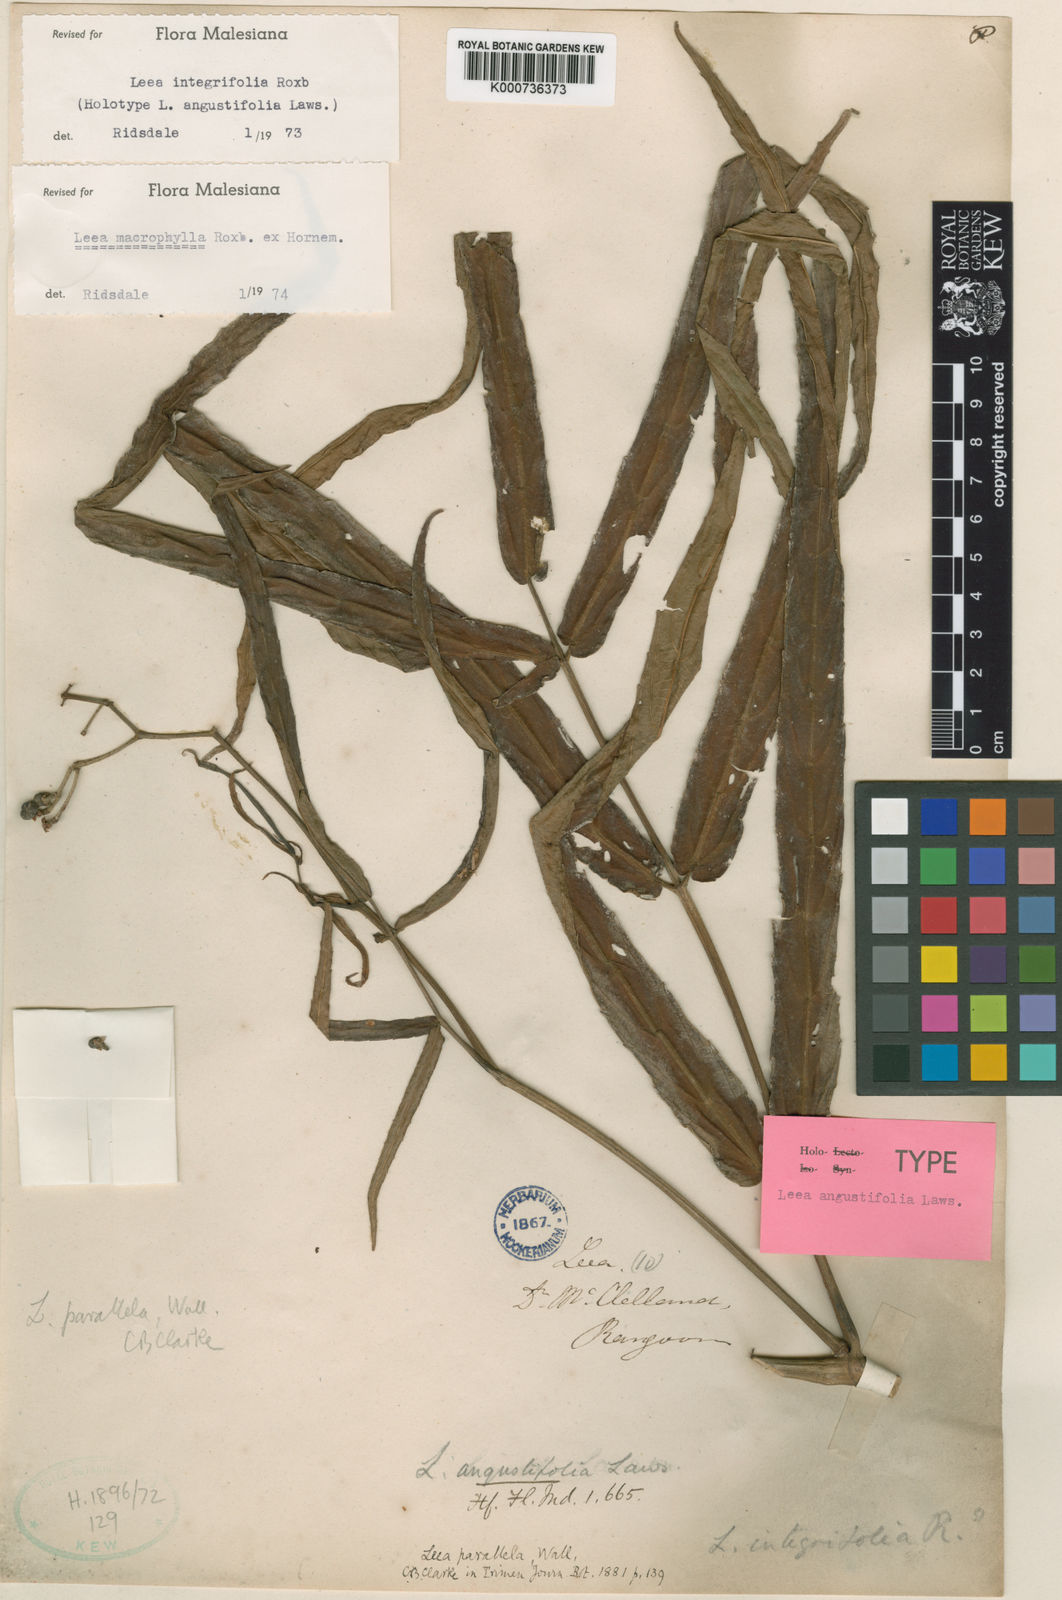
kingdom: Plantae
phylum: Tracheophyta
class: Magnoliopsida
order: Vitales
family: Vitaceae
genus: Leea
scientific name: Leea macrophylla
